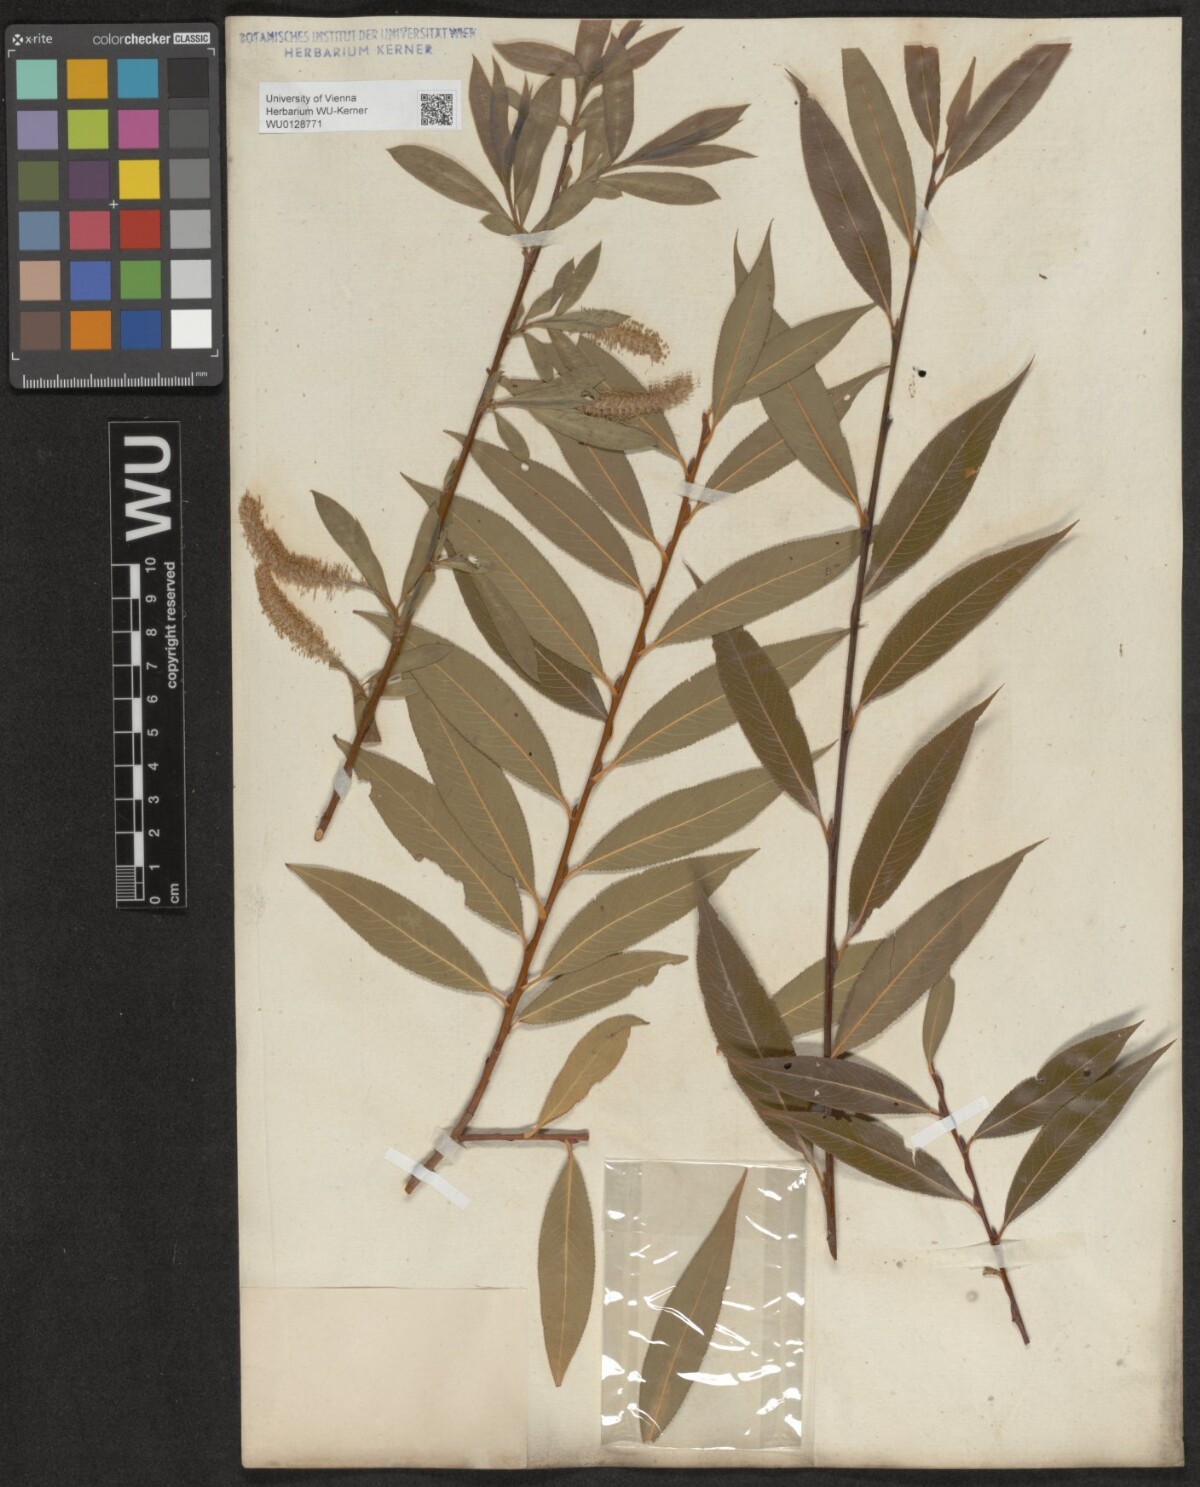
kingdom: Plantae
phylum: Tracheophyta
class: Magnoliopsida
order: Malpighiales
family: Salicaceae
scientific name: Salicaceae
